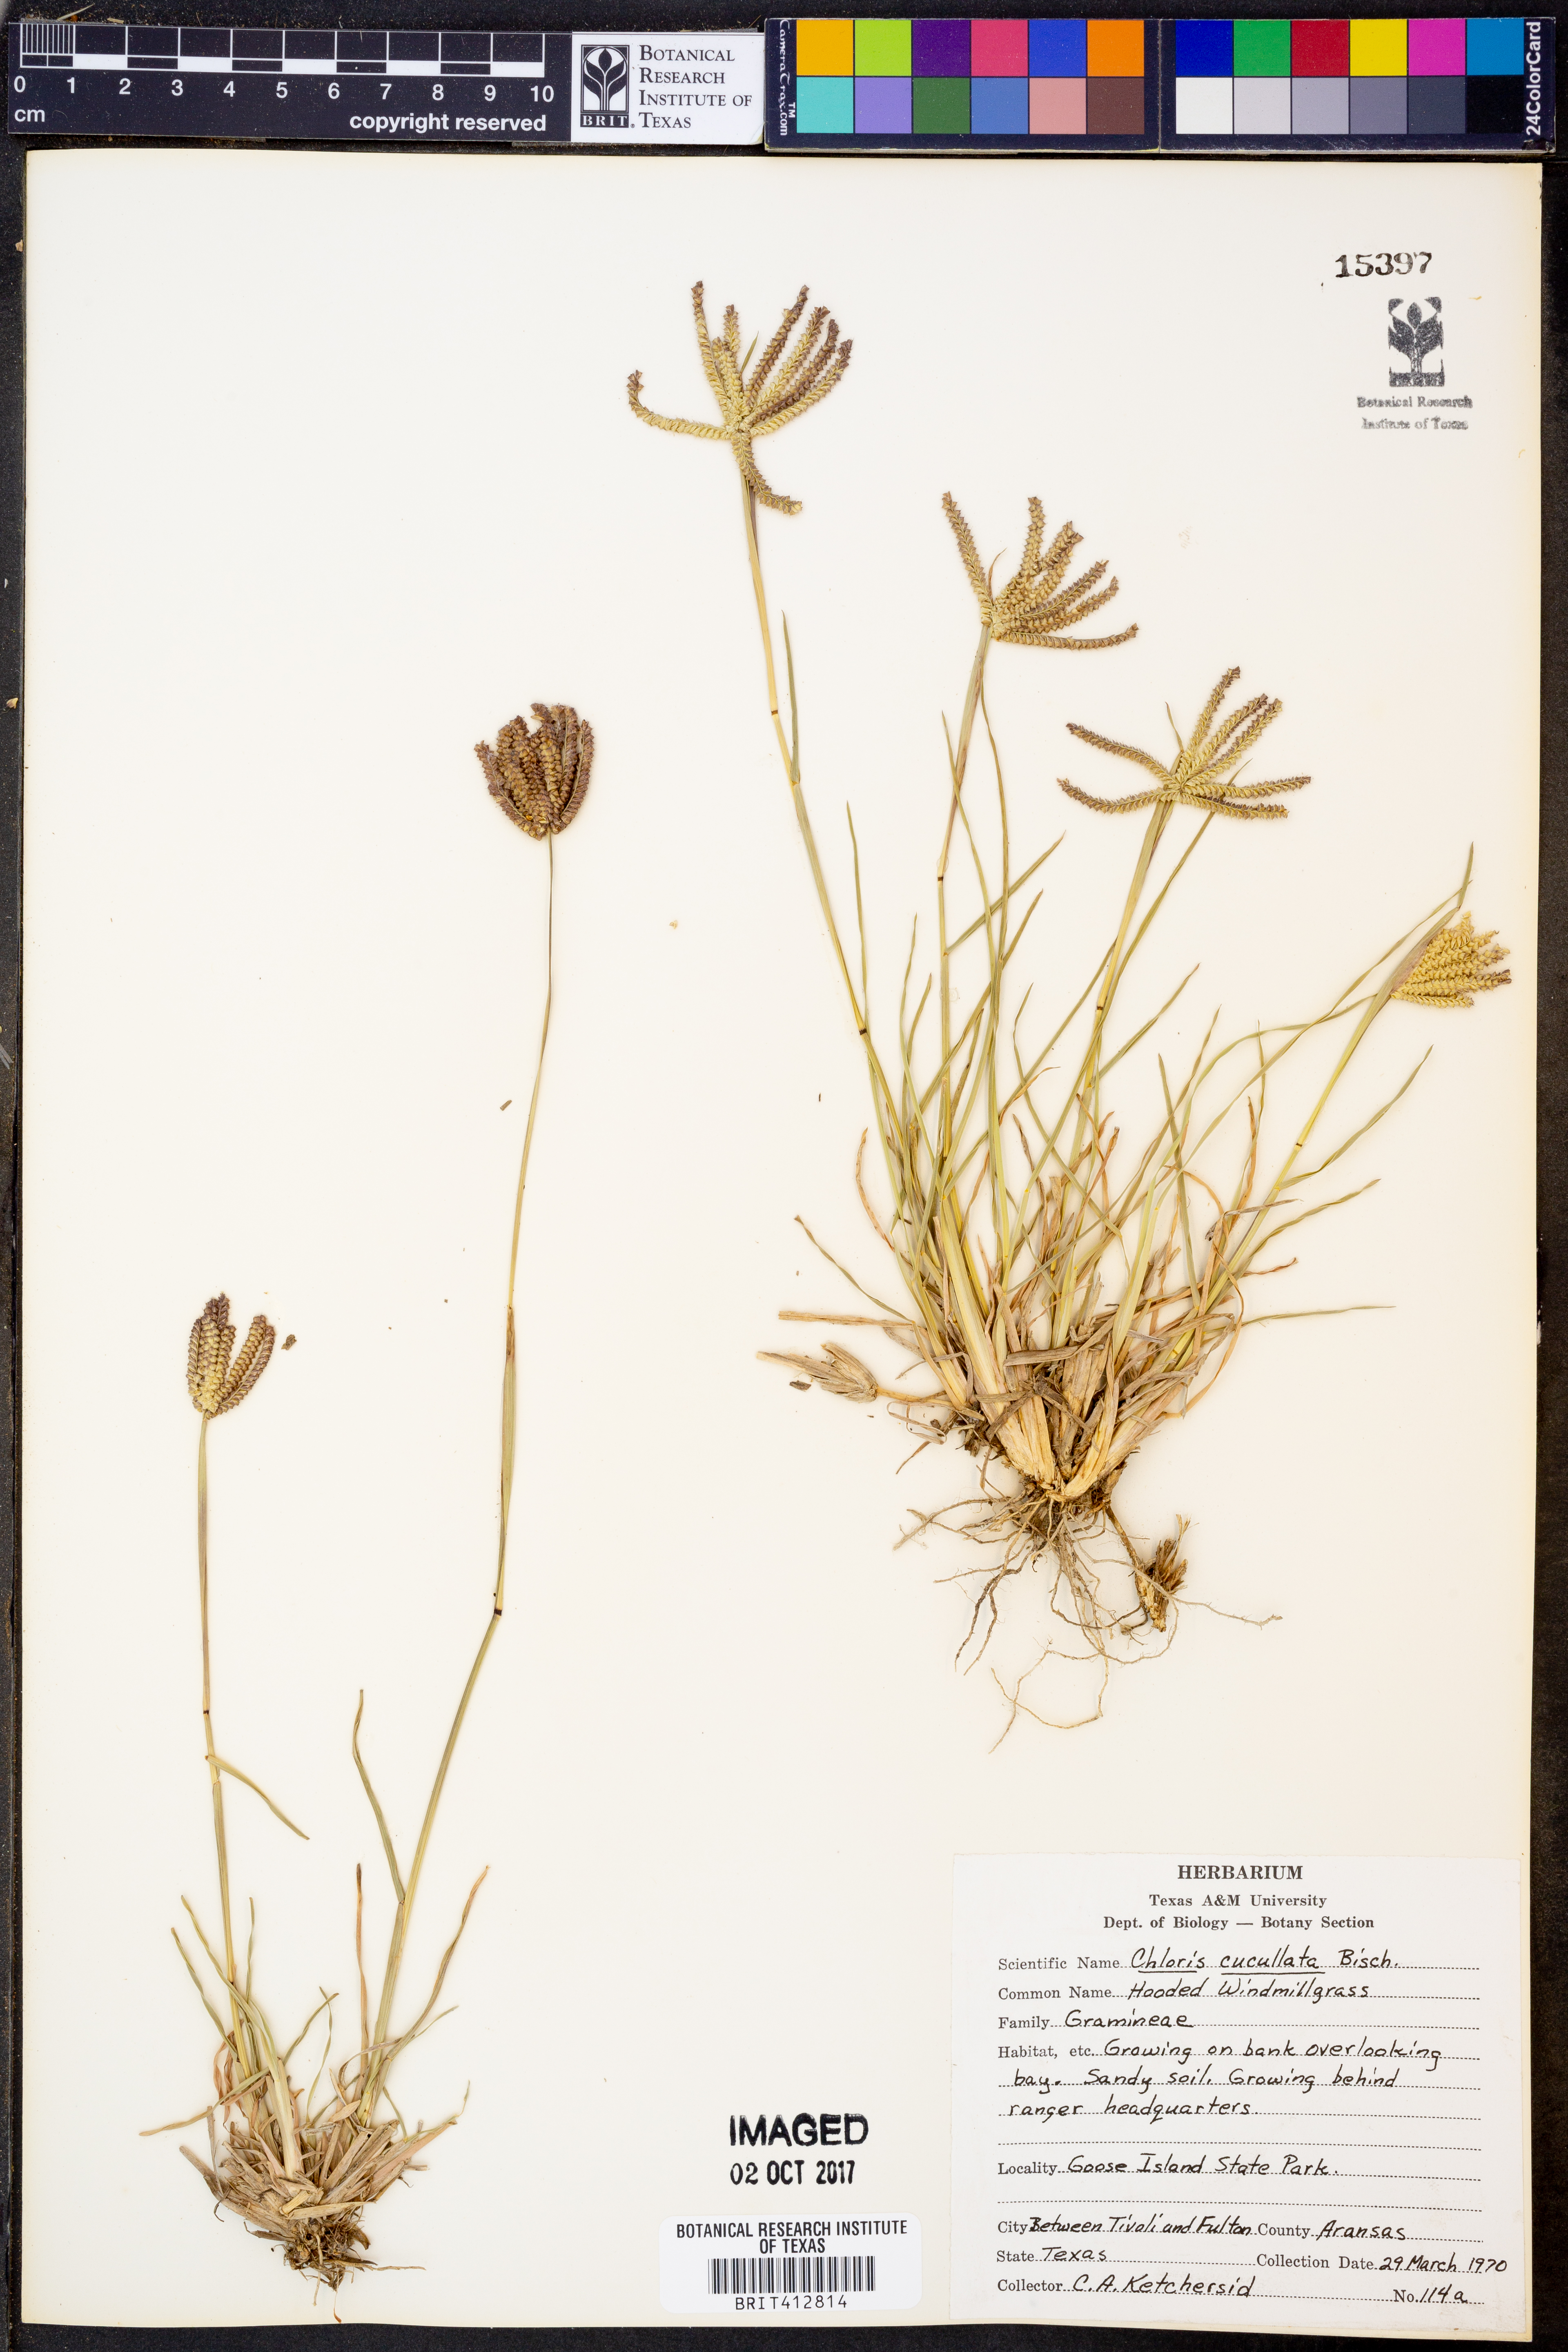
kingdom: Plantae
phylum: Tracheophyta
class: Liliopsida
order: Poales
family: Poaceae
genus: Chloris
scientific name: Chloris cucullata
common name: Hooded windmill grass
